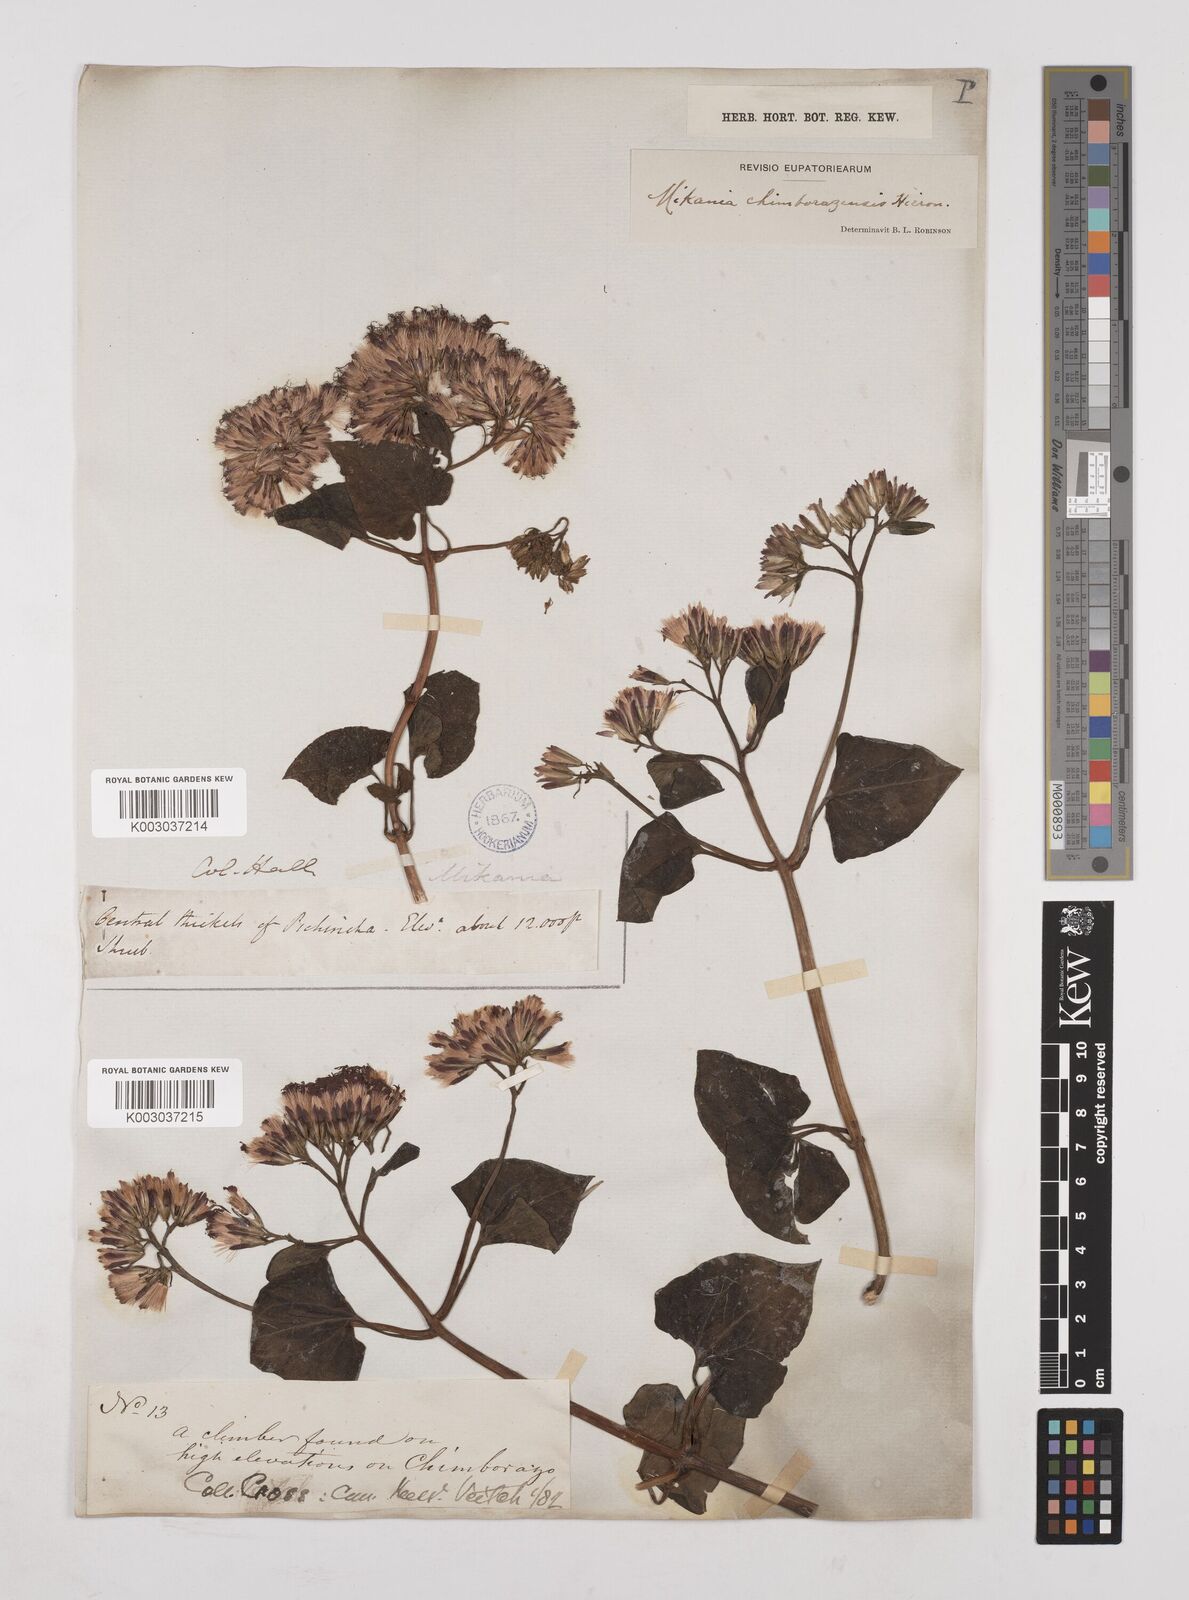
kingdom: Plantae
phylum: Tracheophyta
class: Magnoliopsida
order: Asterales
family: Asteraceae
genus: Mikania
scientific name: Mikania chimborazensis
